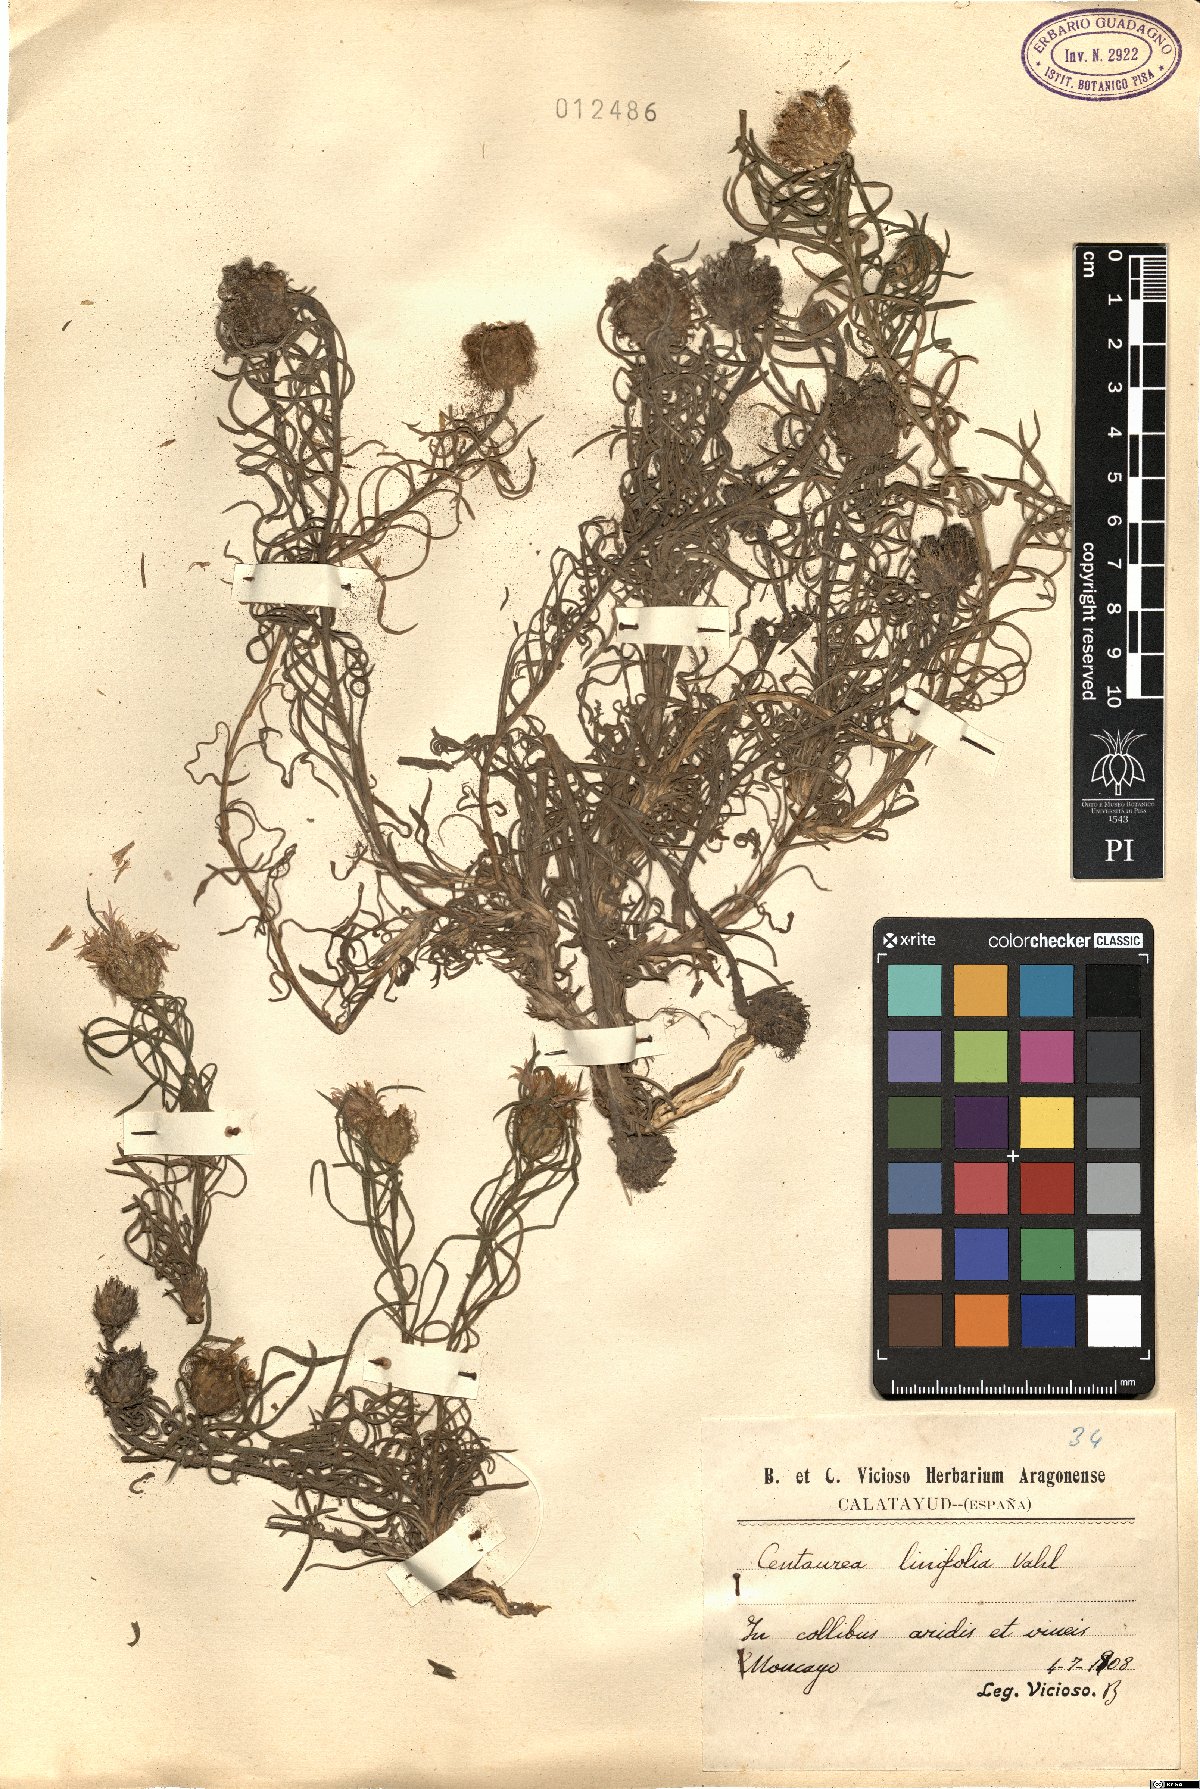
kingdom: Plantae
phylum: Tracheophyta
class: Magnoliopsida
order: Asterales
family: Asteraceae
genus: Centaurea
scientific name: Centaurea linifolia
